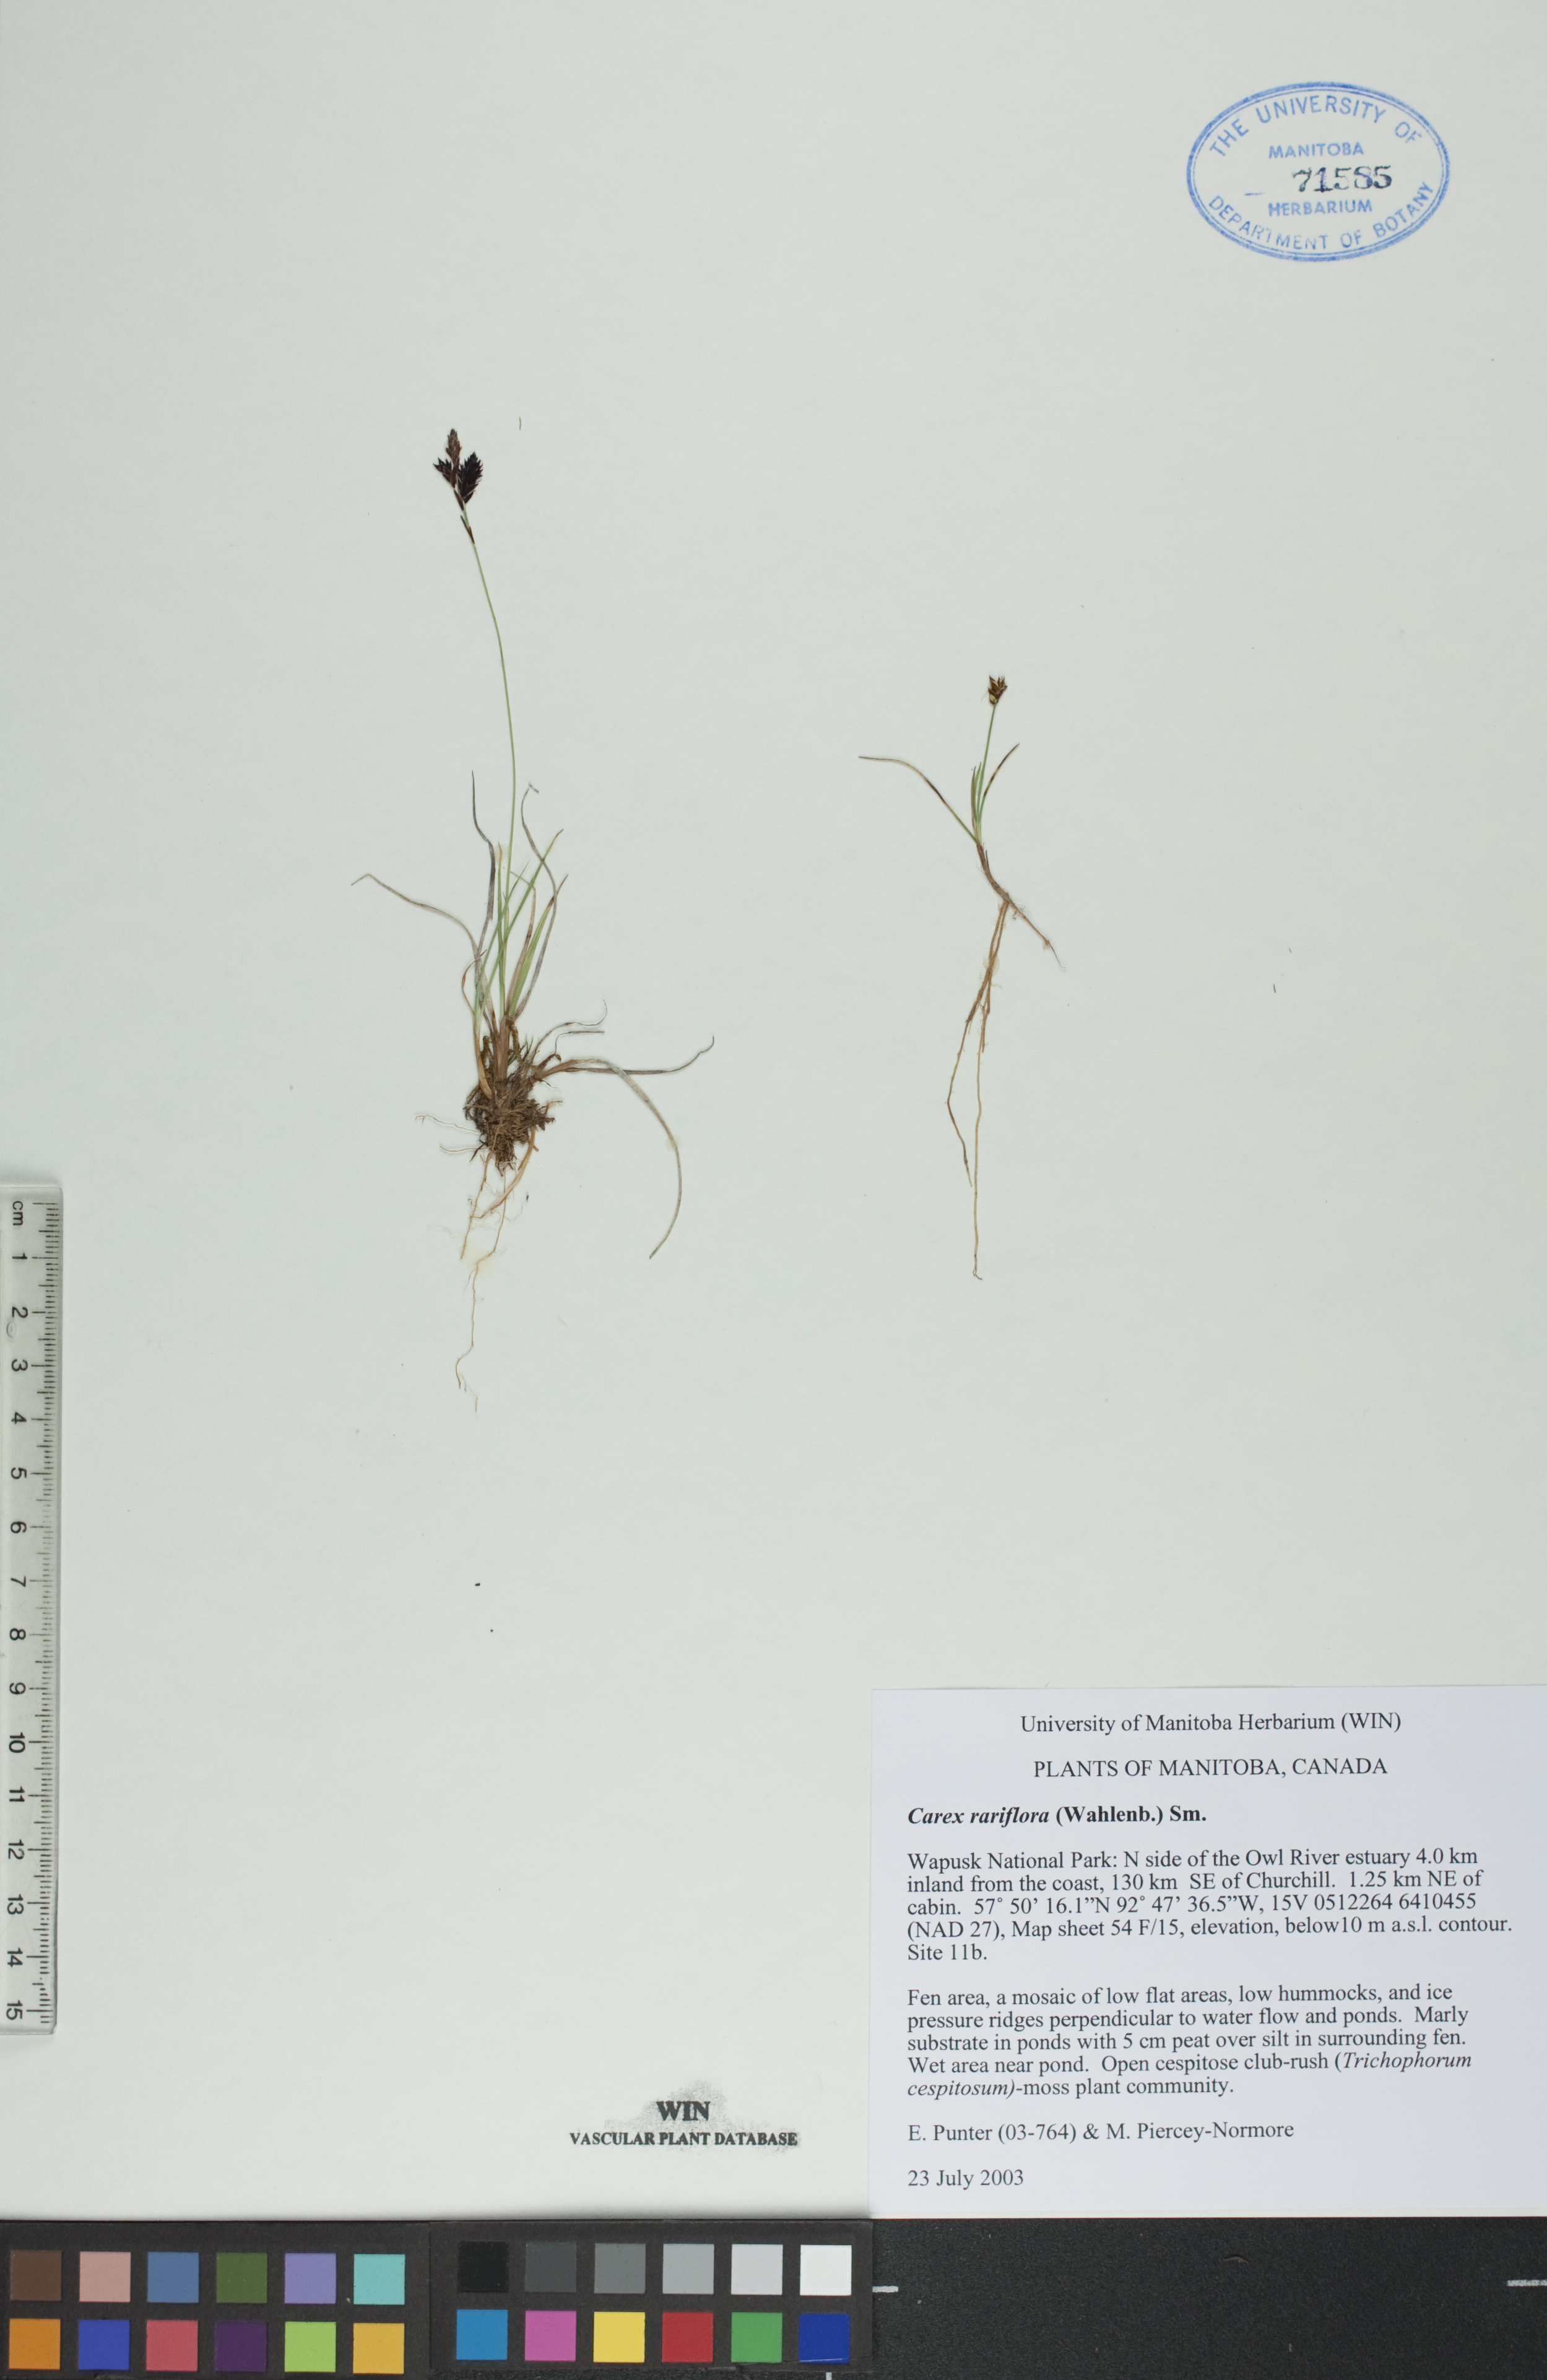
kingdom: Plantae
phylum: Tracheophyta
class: Liliopsida
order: Poales
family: Cyperaceae
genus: Carex
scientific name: Carex rariflora
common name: Loose-flowered alpine sedge
